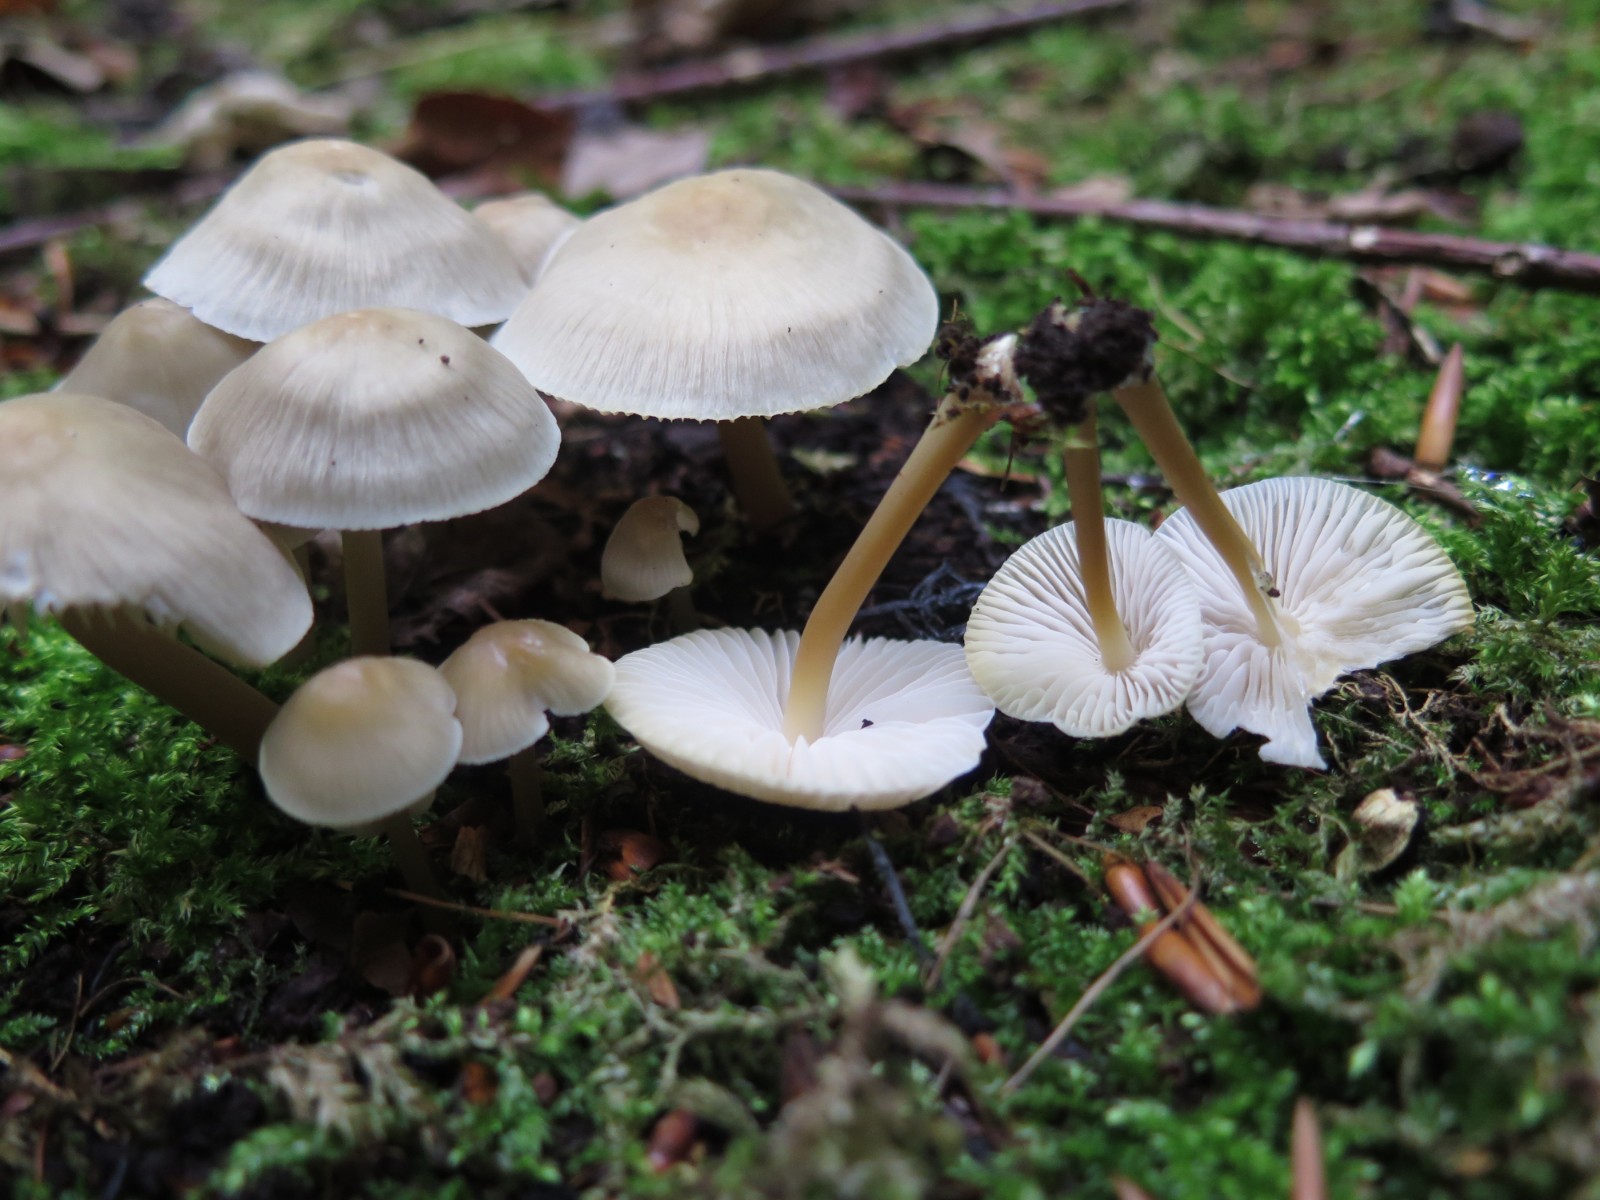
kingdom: Fungi
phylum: Basidiomycota
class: Agaricomycetes
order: Agaricales
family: Mycenaceae
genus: Mycena
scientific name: Mycena galericulata
